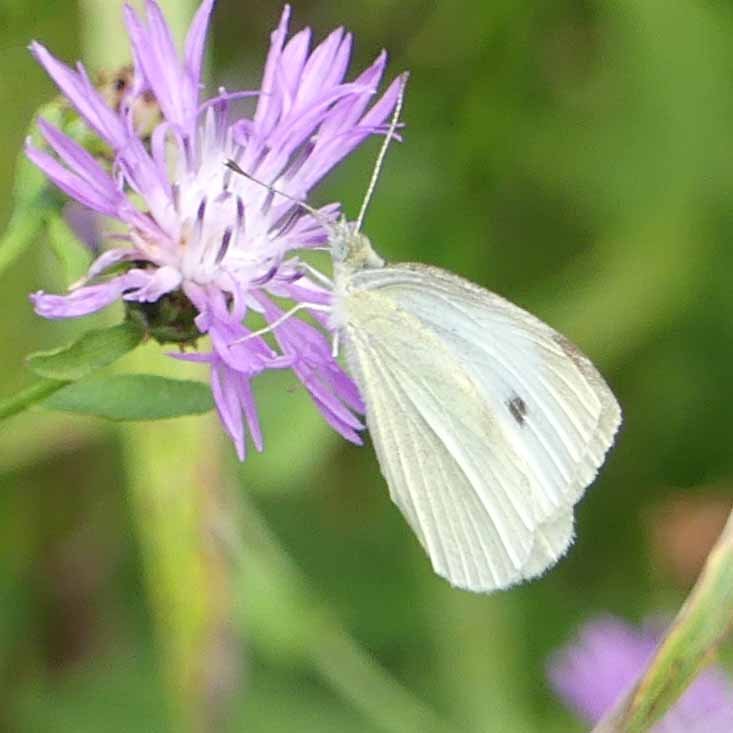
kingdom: Animalia
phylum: Arthropoda
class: Insecta
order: Lepidoptera
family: Pieridae
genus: Pieris
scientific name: Pieris rapae
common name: Cabbage White
